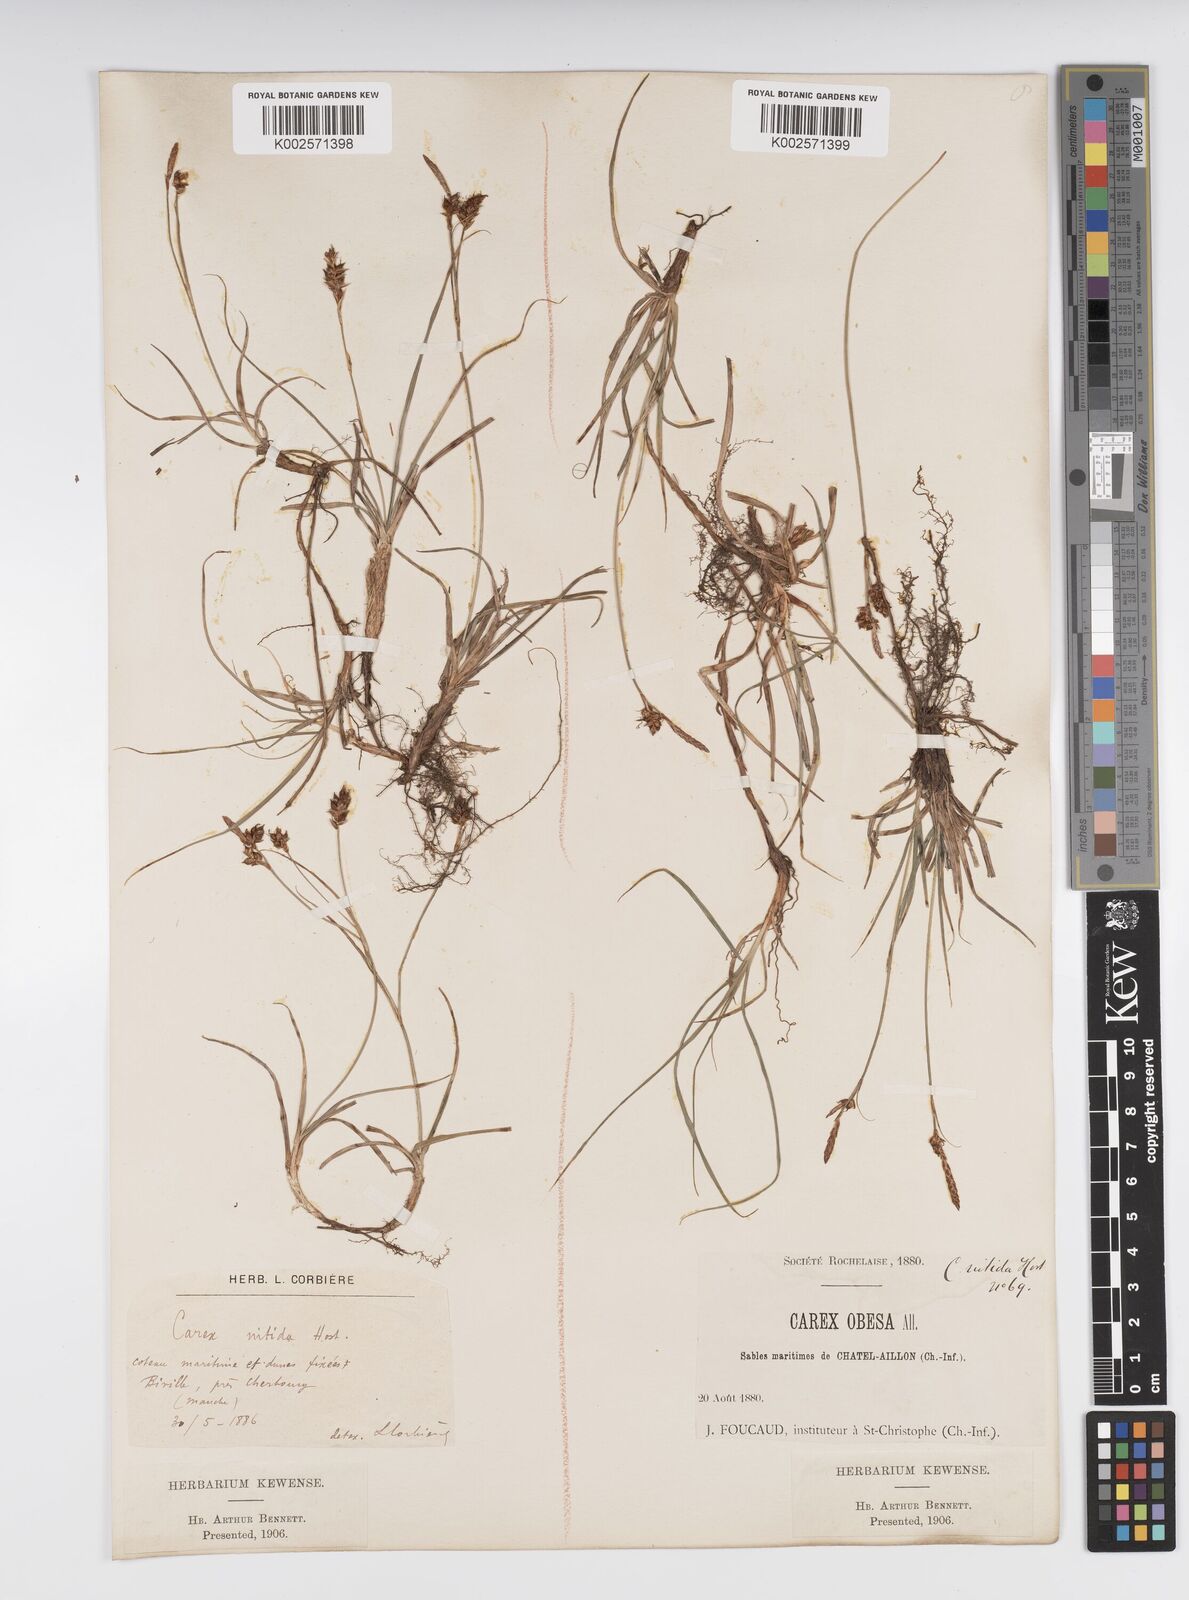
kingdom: Plantae
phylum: Tracheophyta
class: Liliopsida
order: Poales
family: Cyperaceae
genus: Carex
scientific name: Carex liparocarpos
